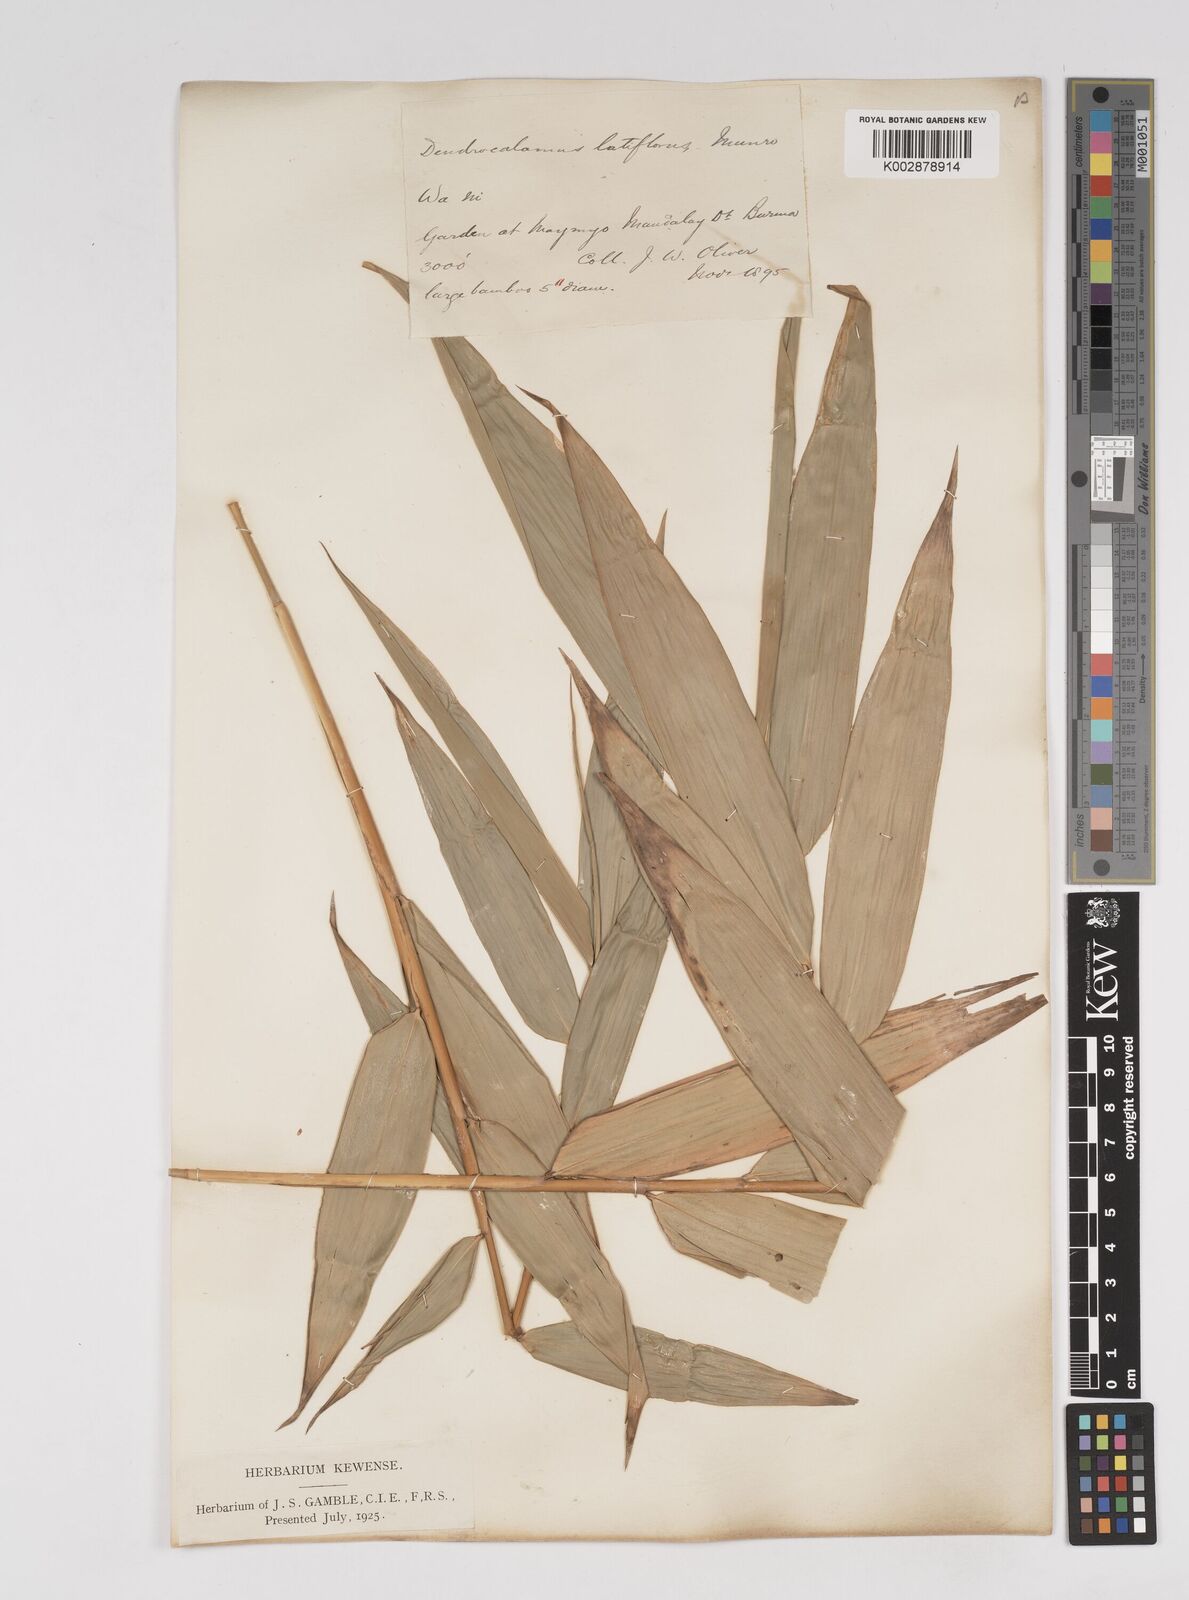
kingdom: Plantae
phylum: Tracheophyta
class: Liliopsida
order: Poales
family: Poaceae
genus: Dendrocalamus
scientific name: Dendrocalamus latiflorus
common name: Giant bamboo
